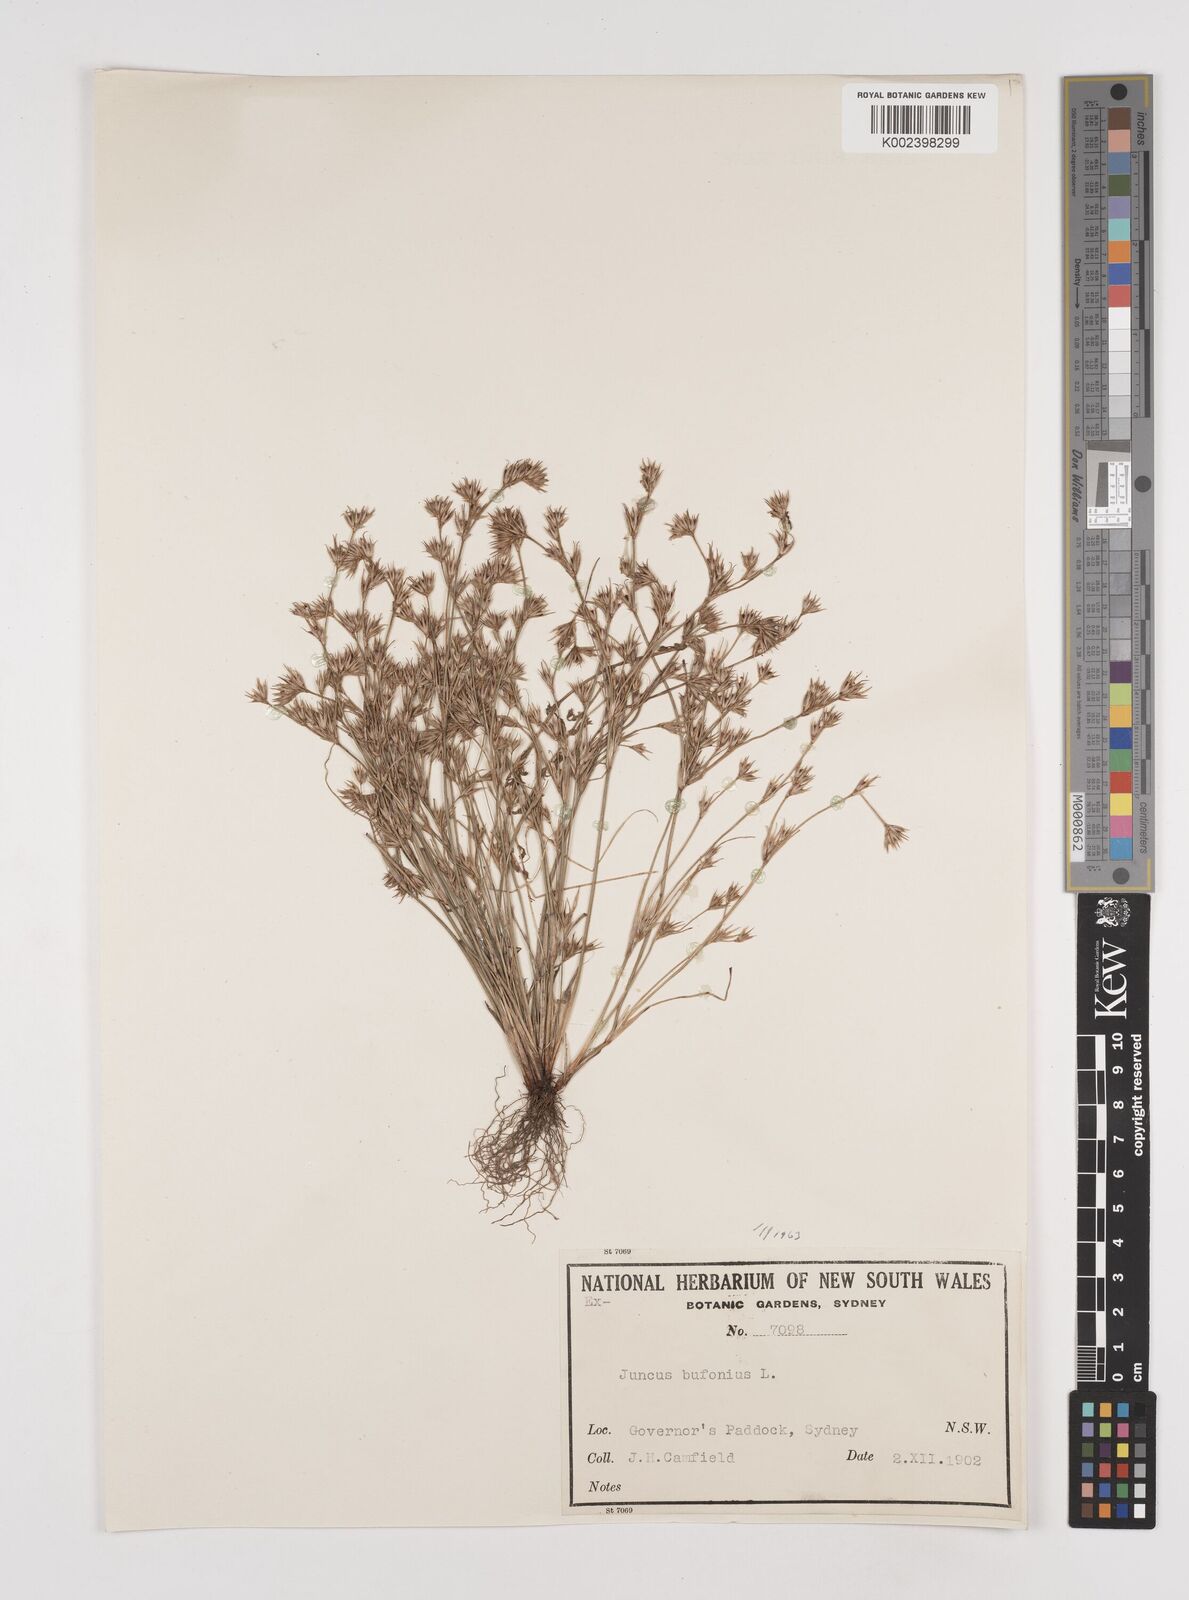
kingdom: Plantae
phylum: Tracheophyta
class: Liliopsida
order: Poales
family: Juncaceae
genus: Juncus
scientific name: Juncus bufonius
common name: Toad rush
